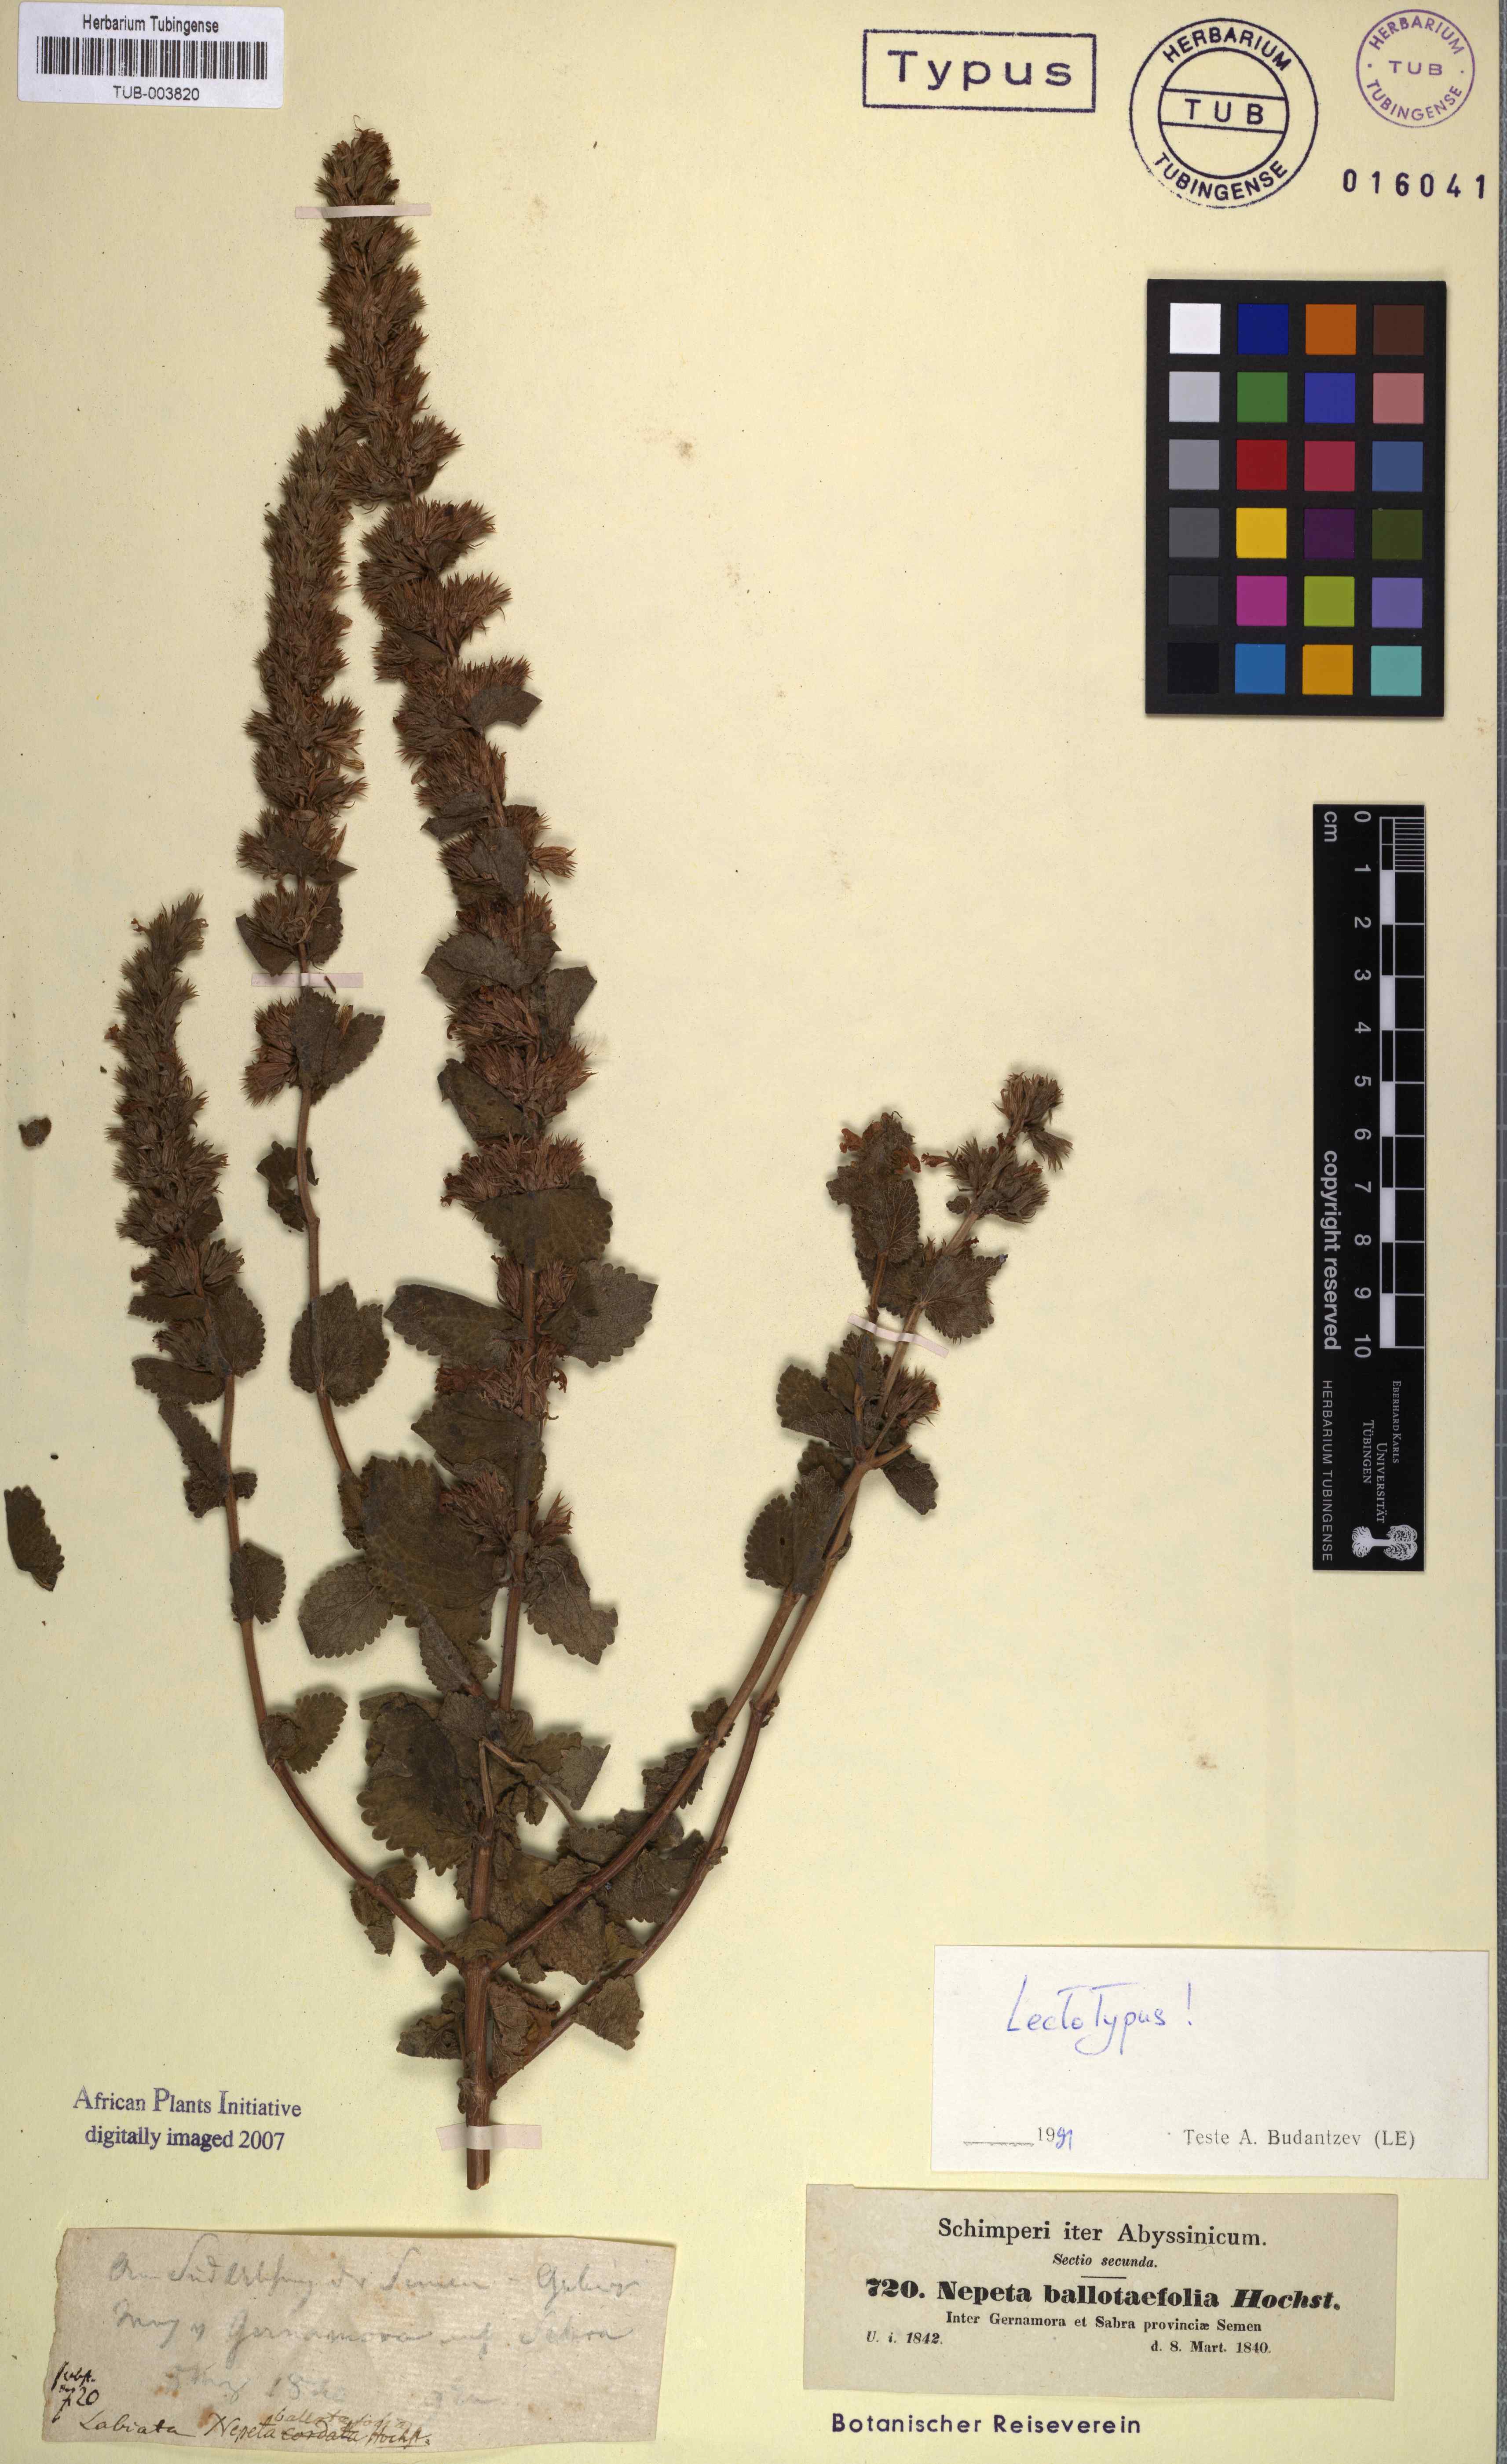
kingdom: Plantae
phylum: Tracheophyta
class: Magnoliopsida
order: Lamiales
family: Lamiaceae
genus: Nepeta
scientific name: Nepeta azurea
